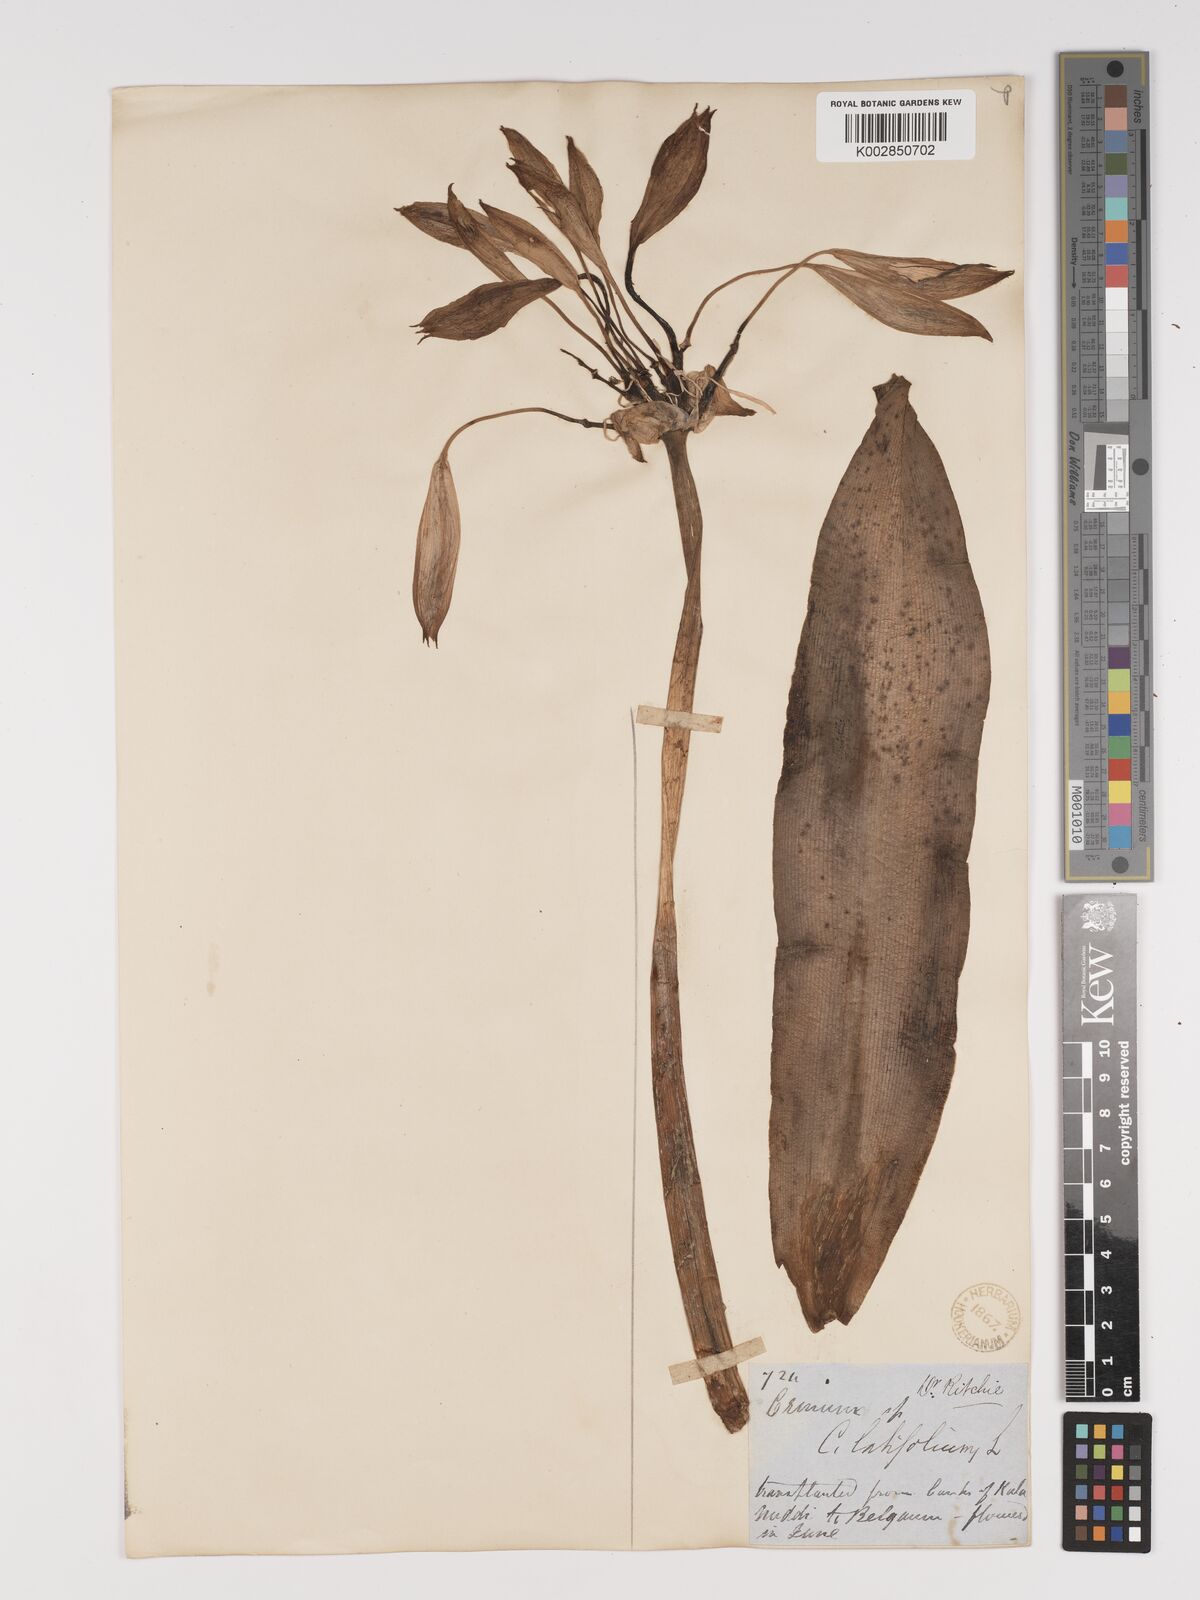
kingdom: Plantae
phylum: Tracheophyta
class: Liliopsida
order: Asparagales
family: Amaryllidaceae
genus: Crinum
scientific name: Crinum latifolium
